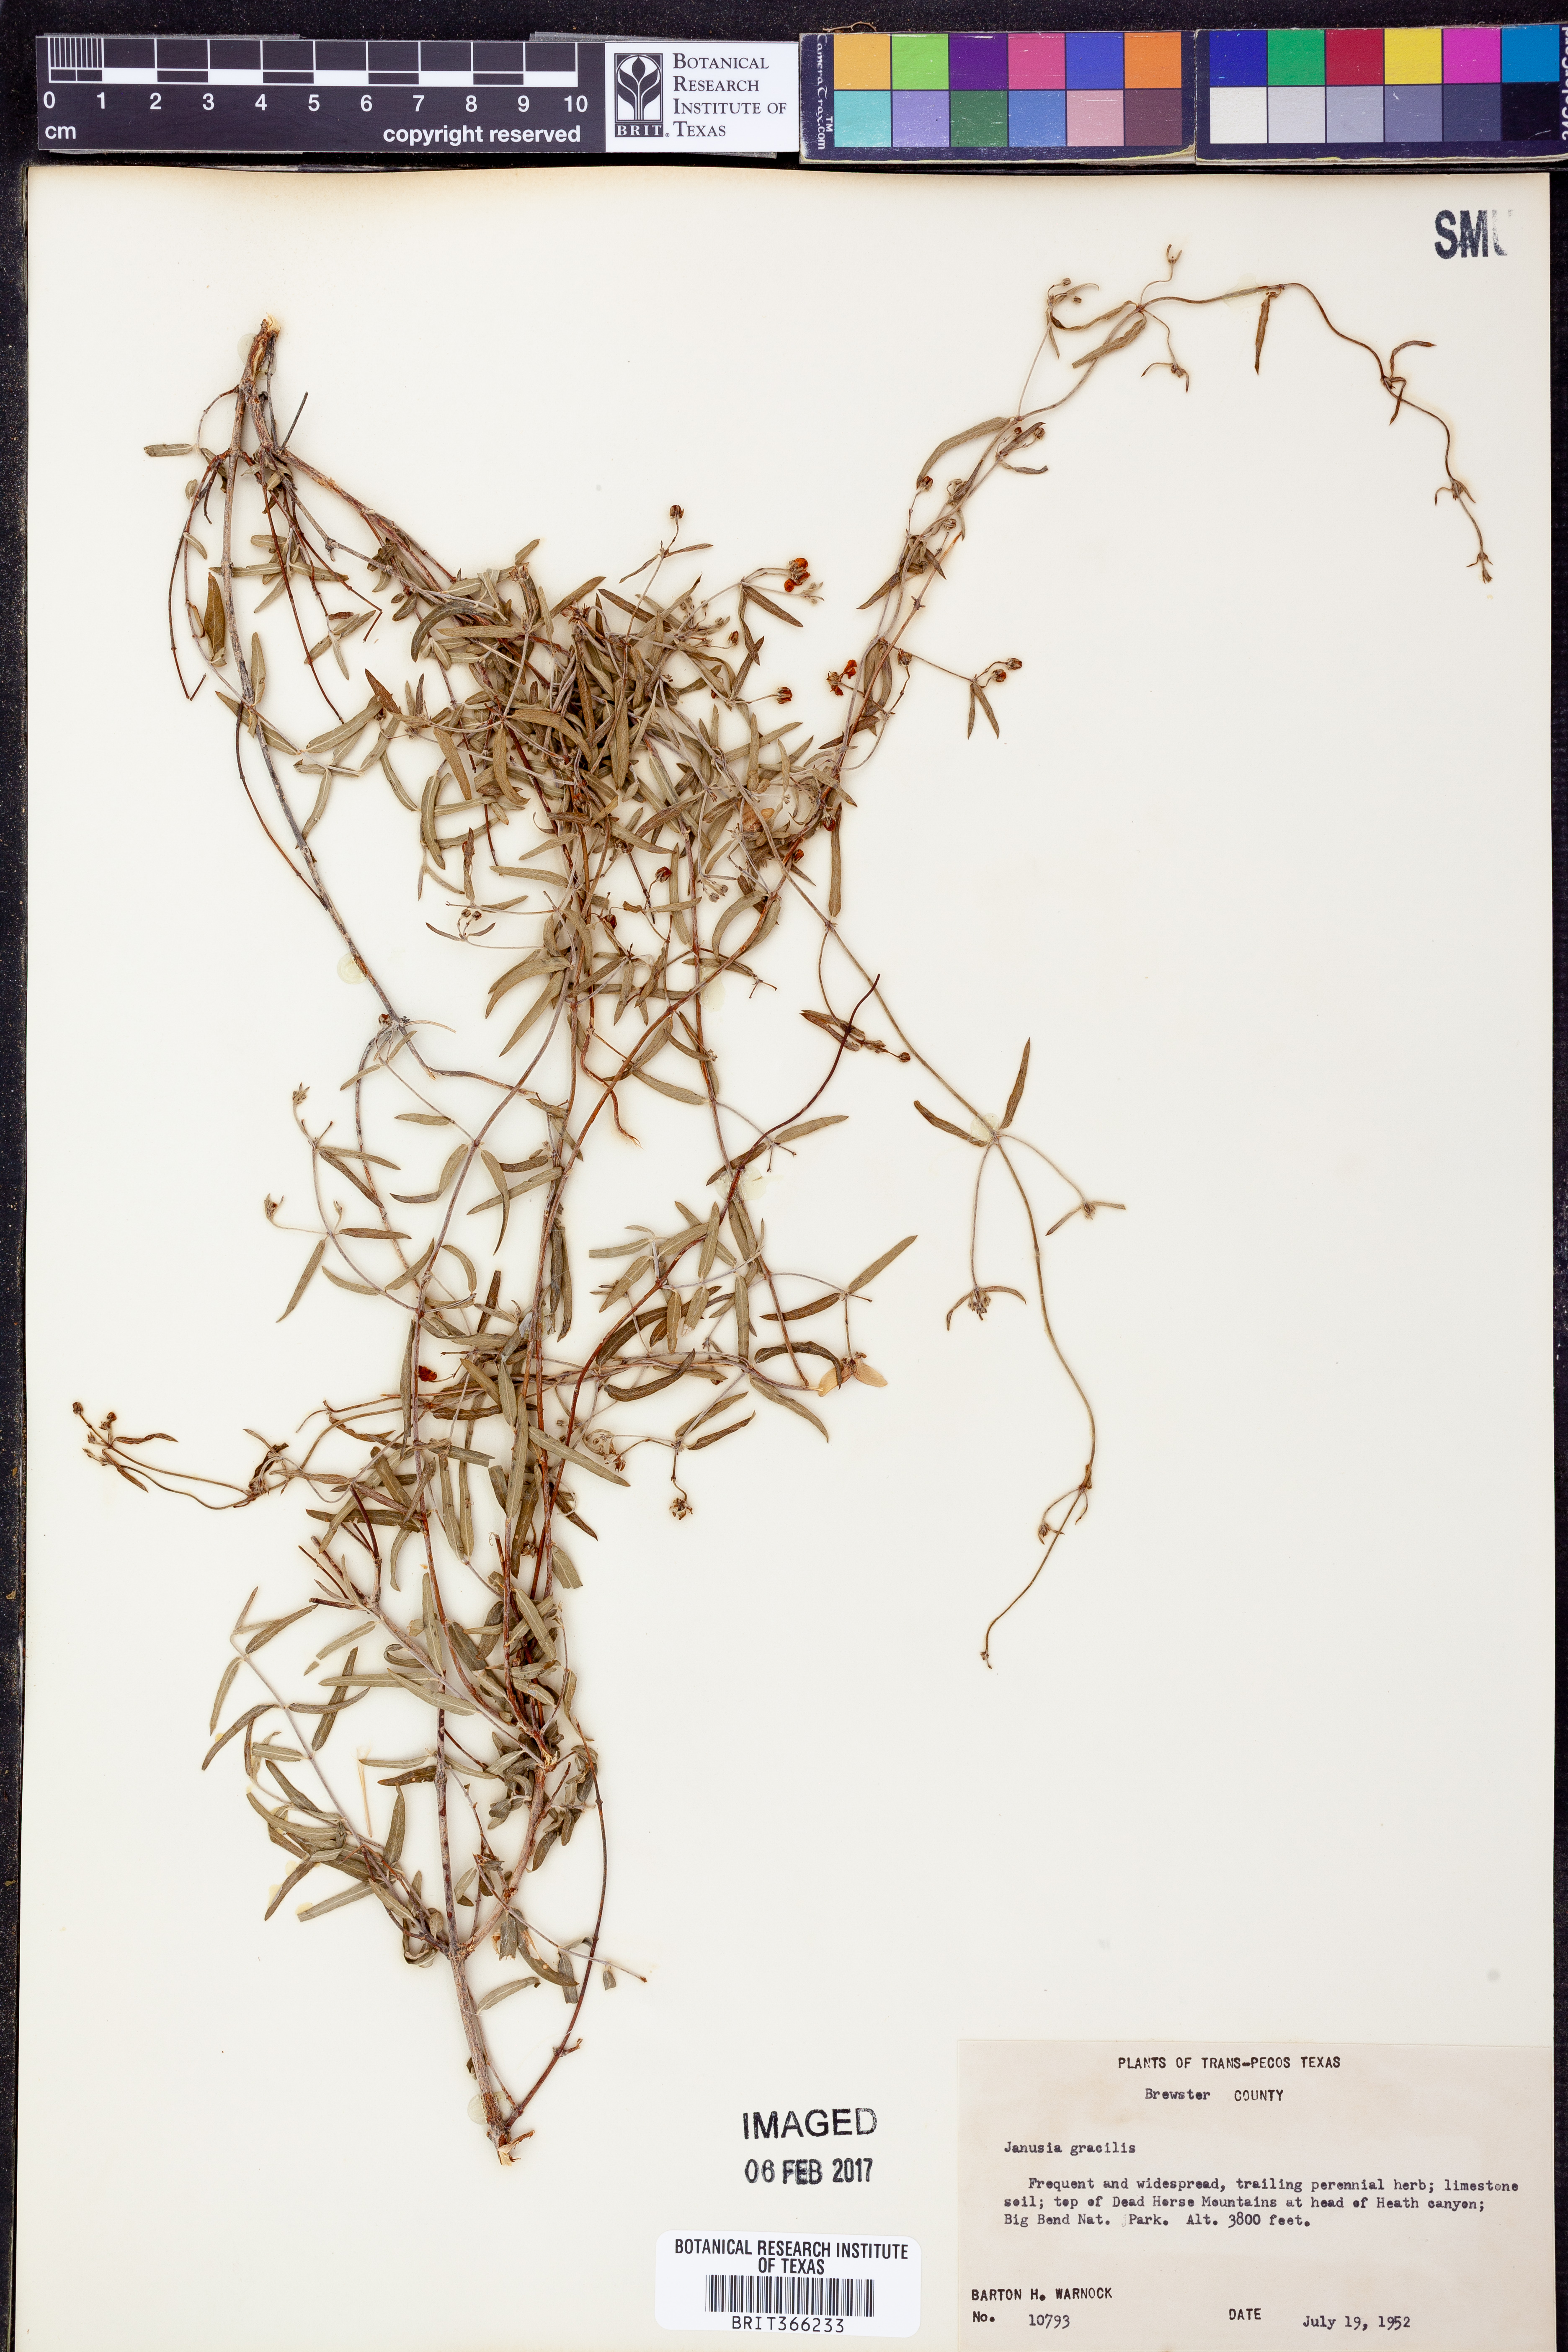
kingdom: Plantae
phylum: Tracheophyta
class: Magnoliopsida
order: Malpighiales
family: Malpighiaceae
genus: Cottsia
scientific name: Cottsia gracilis
